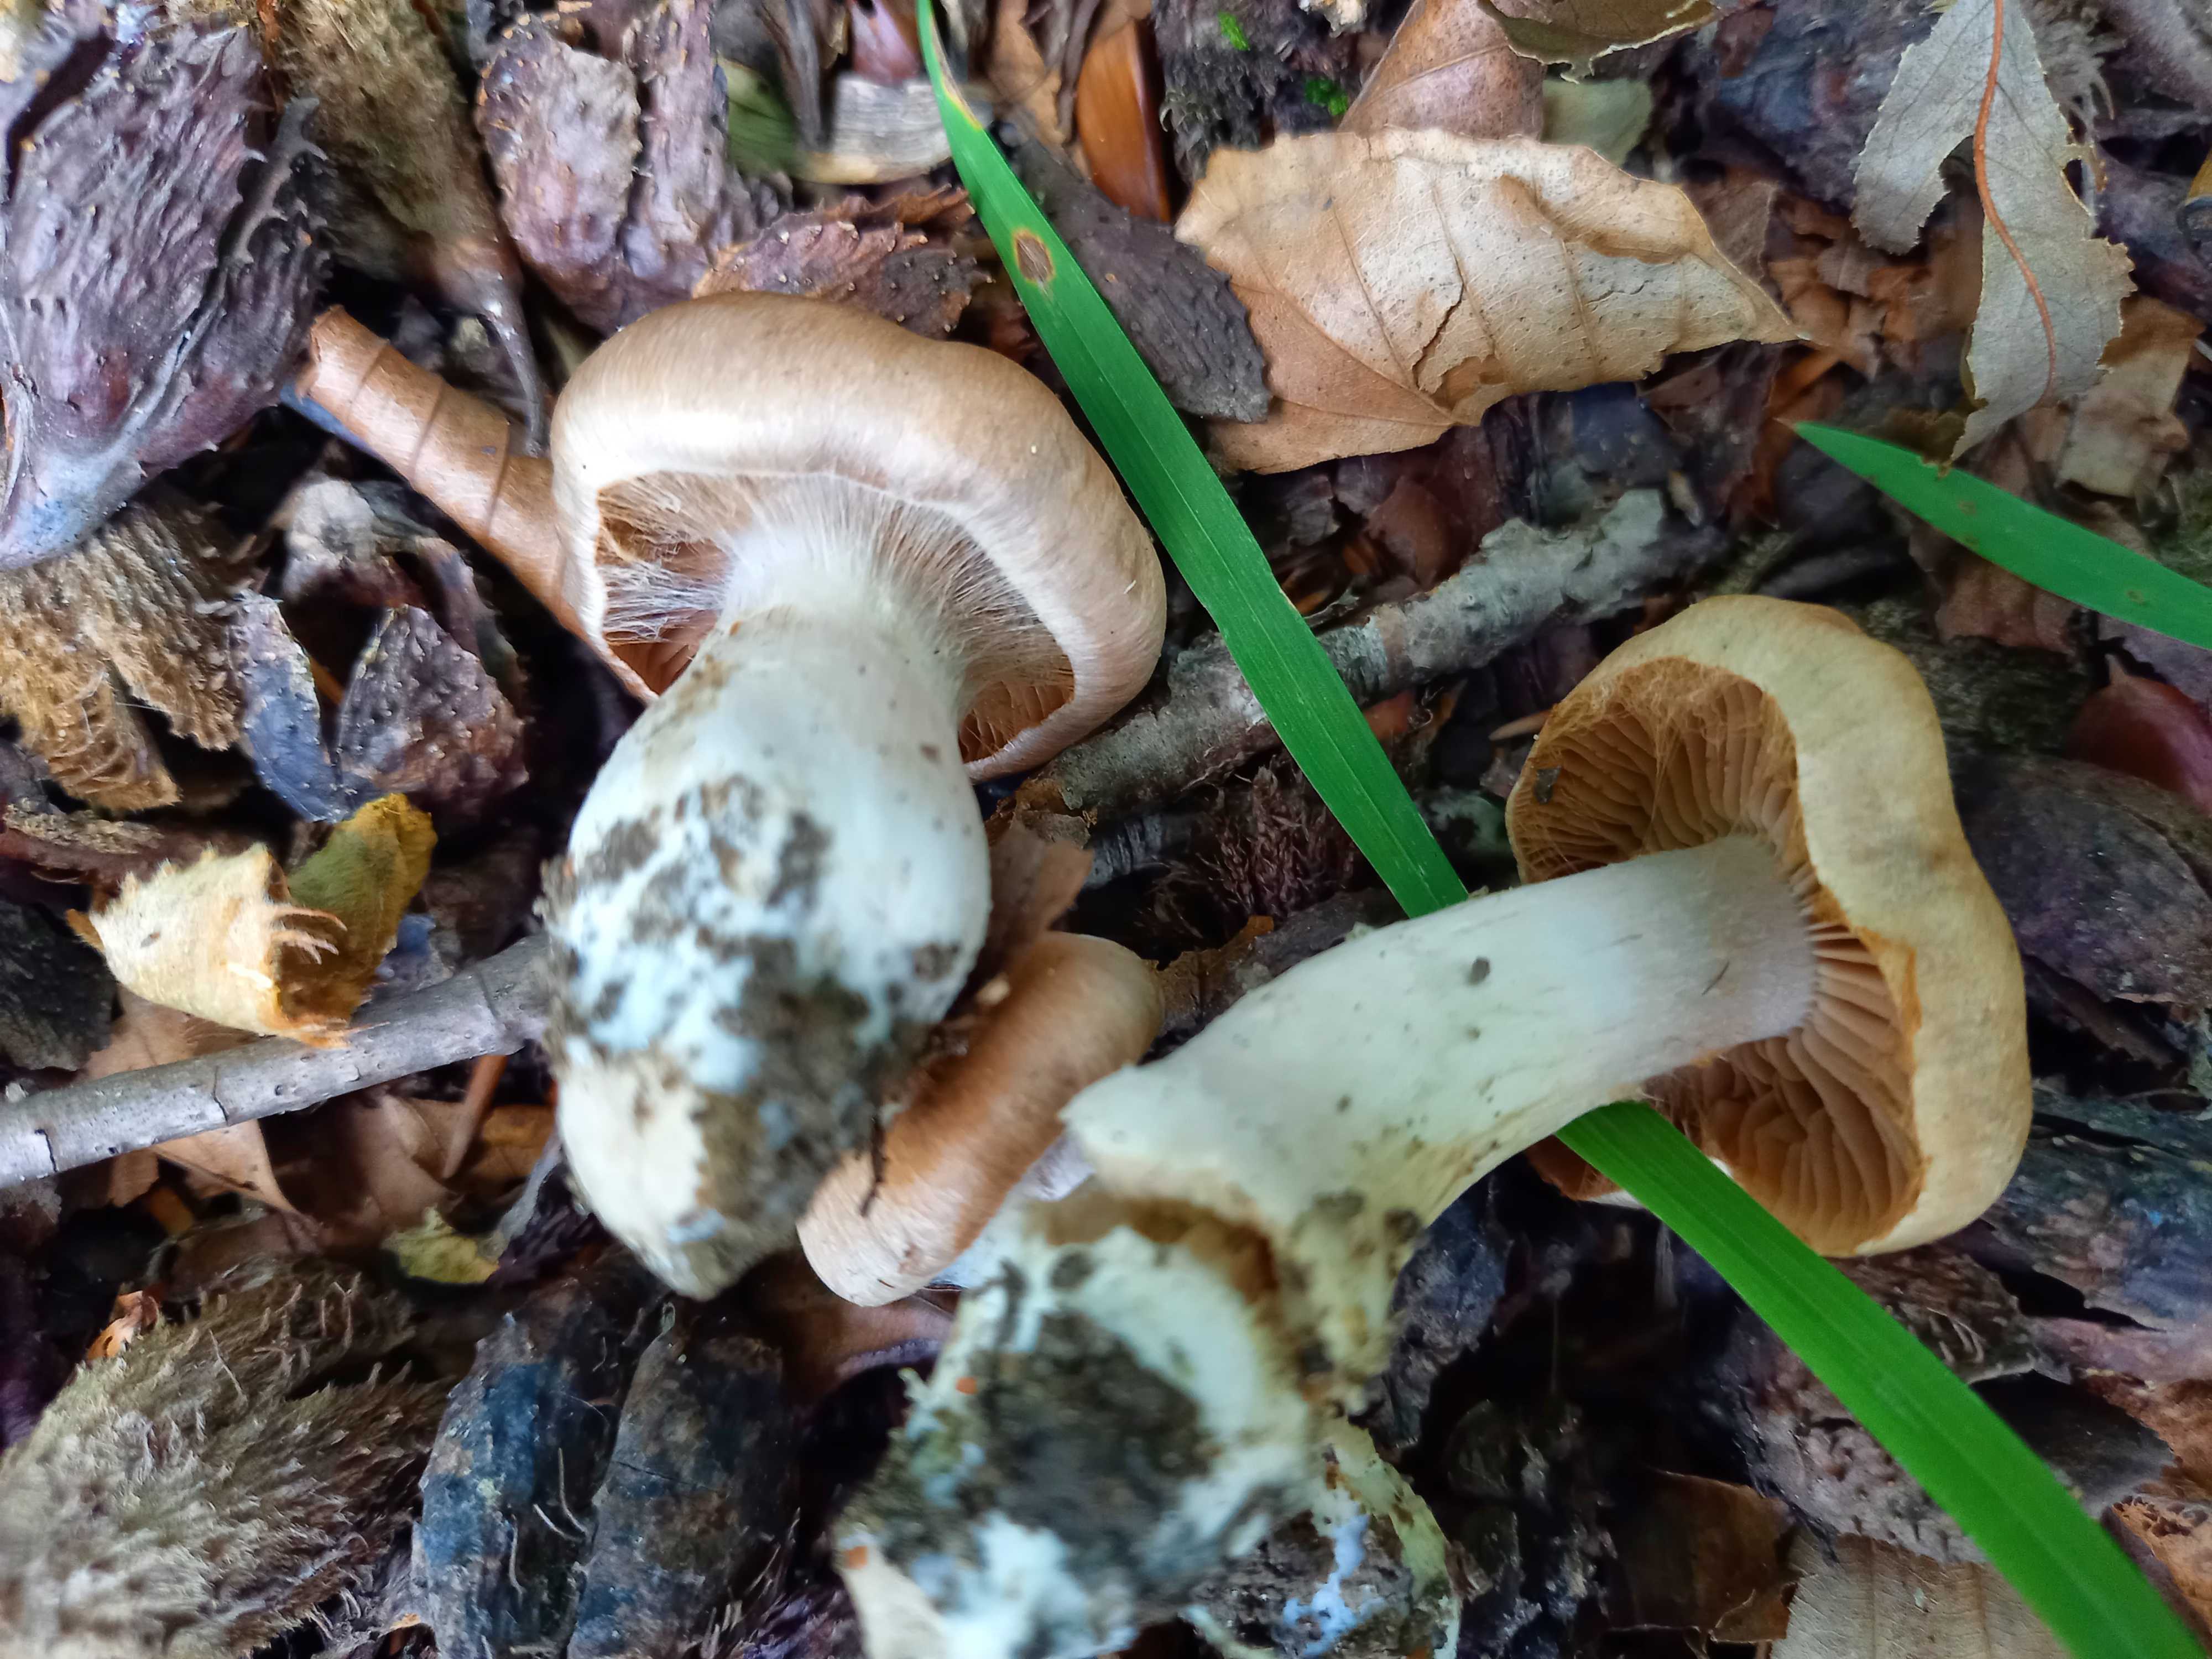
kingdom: Fungi
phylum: Basidiomycota
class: Agaricomycetes
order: Agaricales
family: Cortinariaceae
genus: Cortinarius
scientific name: Cortinarius
